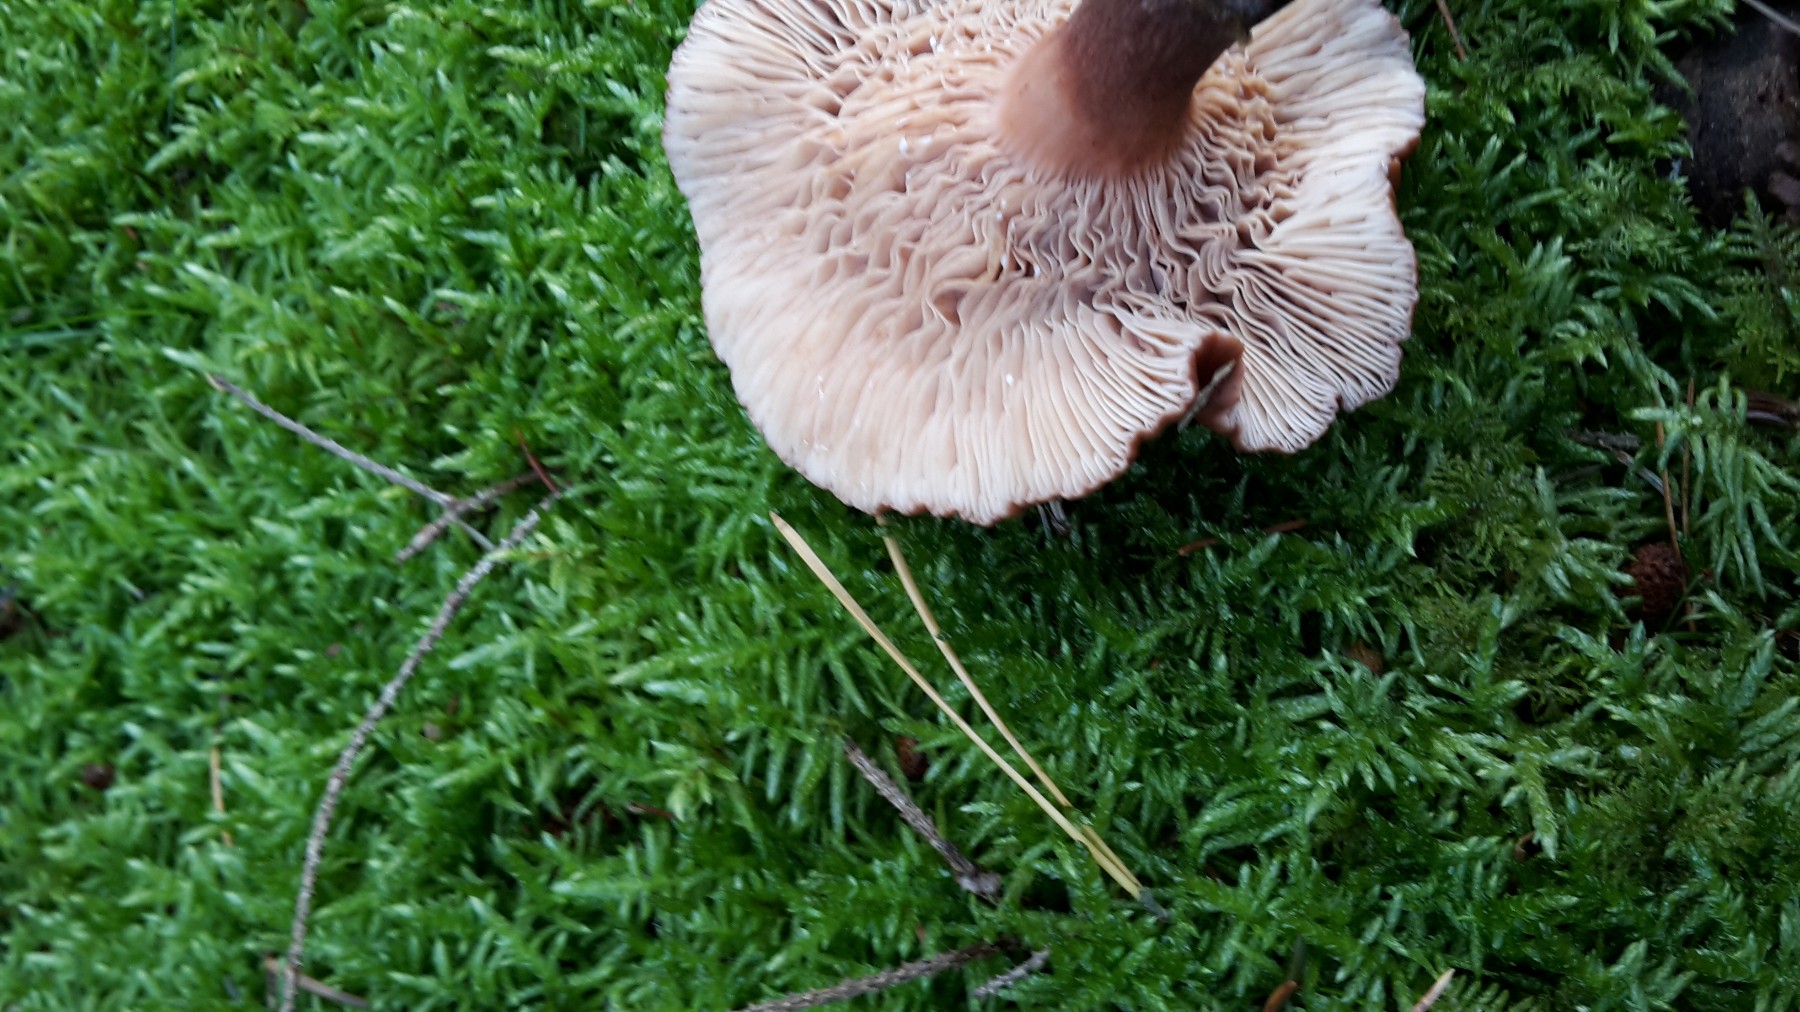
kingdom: Fungi
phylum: Basidiomycota
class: Agaricomycetes
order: Russulales
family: Russulaceae
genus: Lactarius
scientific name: Lactarius serifluus
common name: tæge-mælkehat
